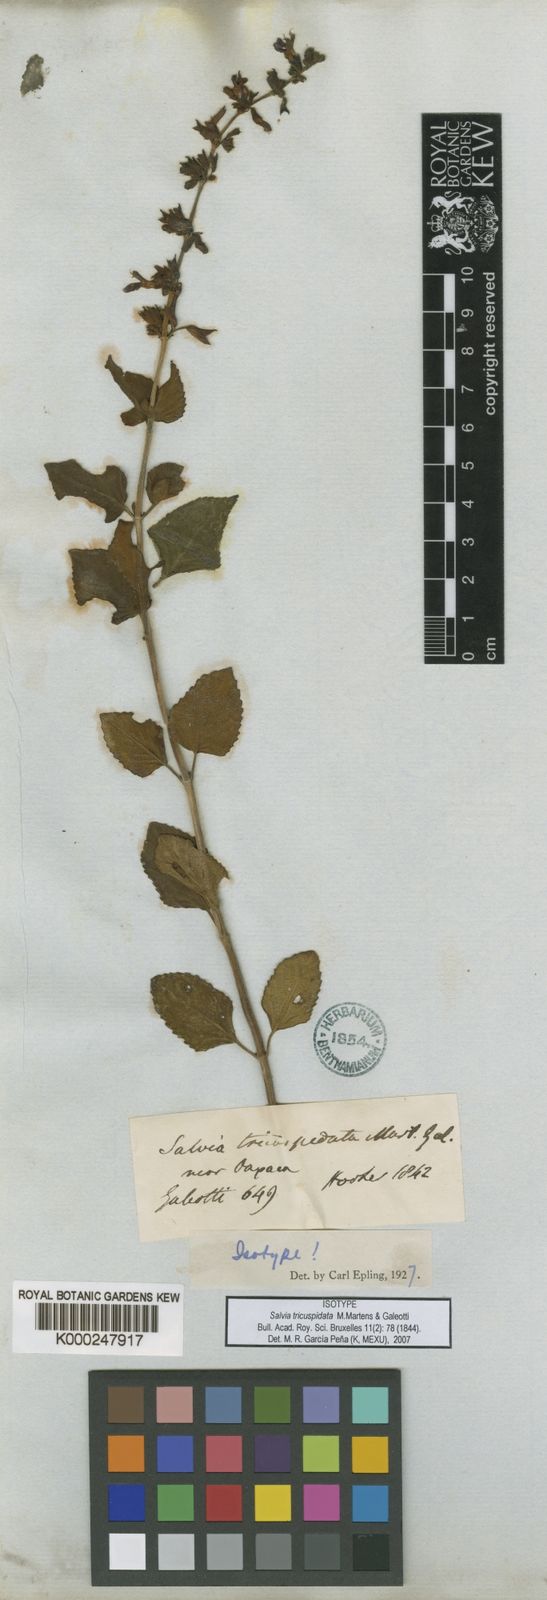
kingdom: Plantae
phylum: Tracheophyta
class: Magnoliopsida
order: Lamiales
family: Lamiaceae
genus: Salvia
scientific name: Salvia tricuspidata
